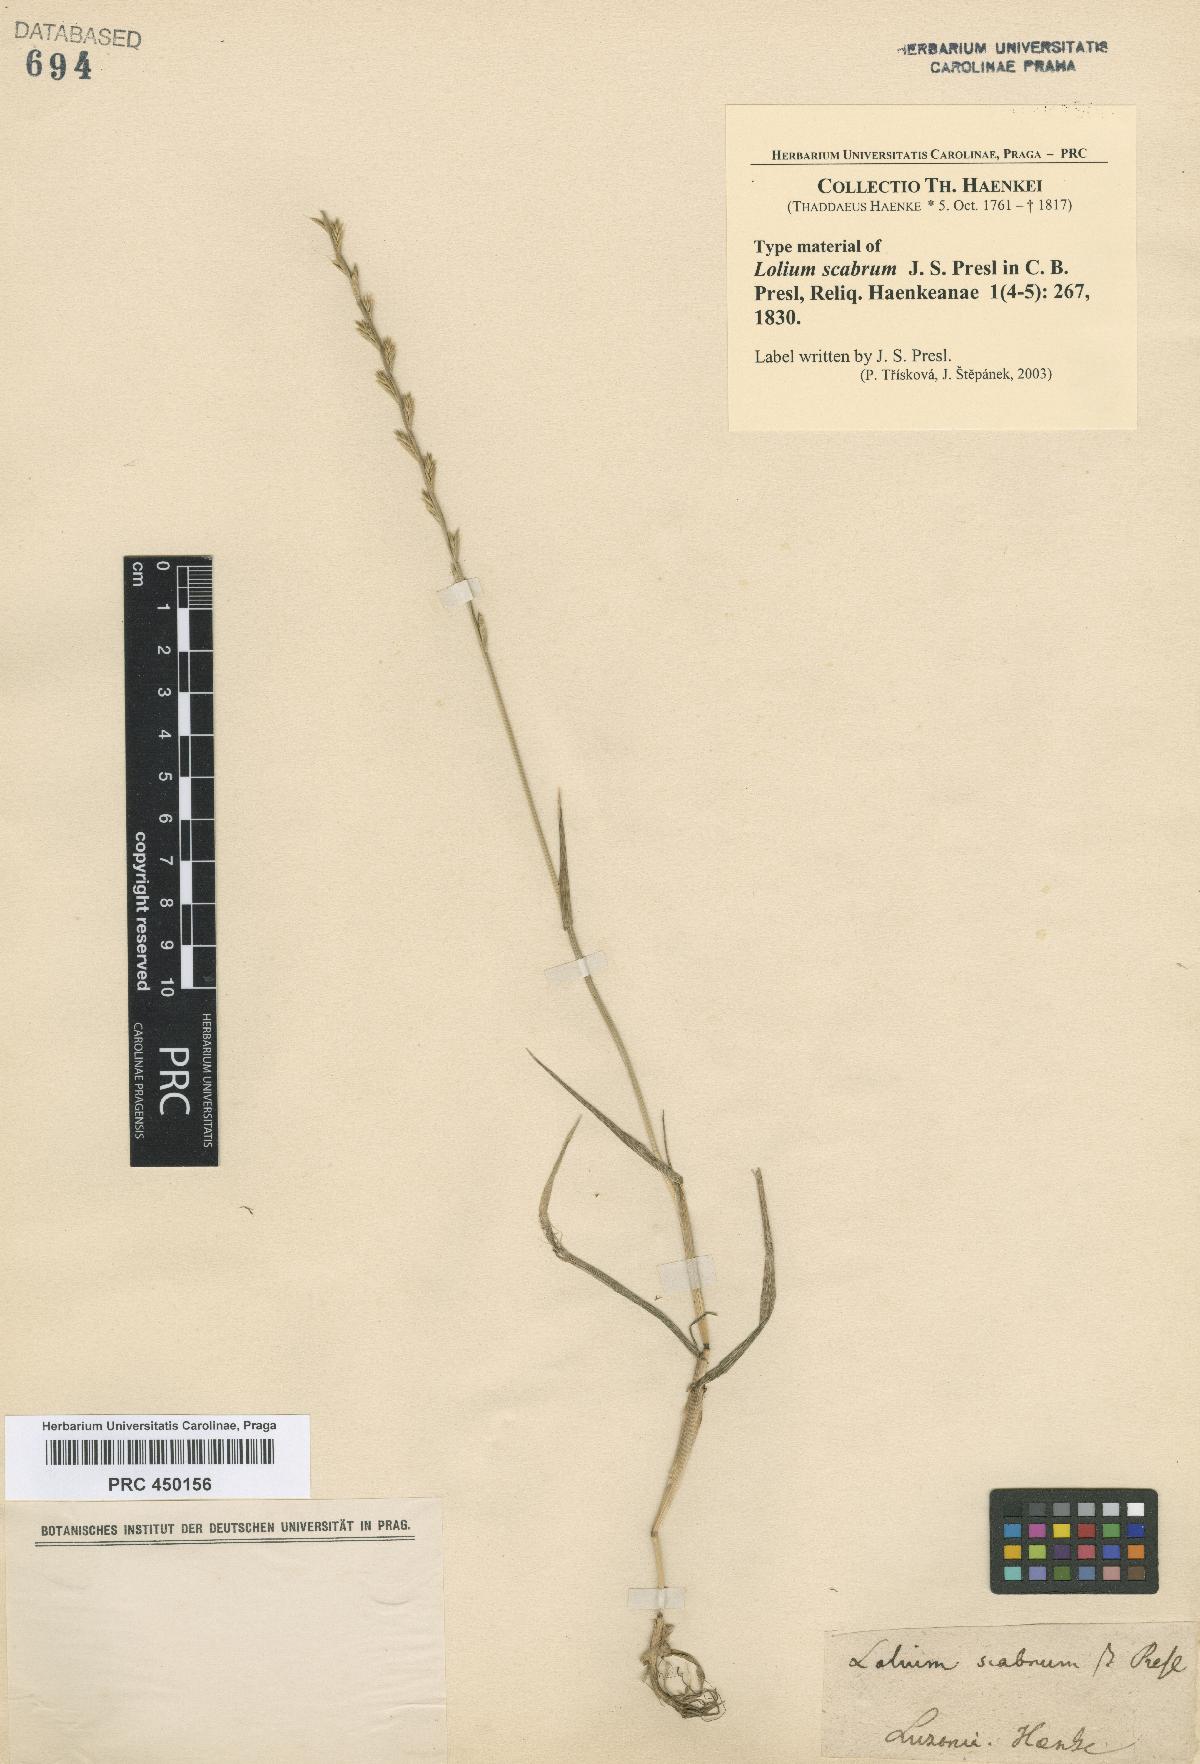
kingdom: Plantae
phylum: Tracheophyta
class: Liliopsida
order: Poales
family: Poaceae
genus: Lolium
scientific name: Lolium multiflorum
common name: Annual ryegrass
